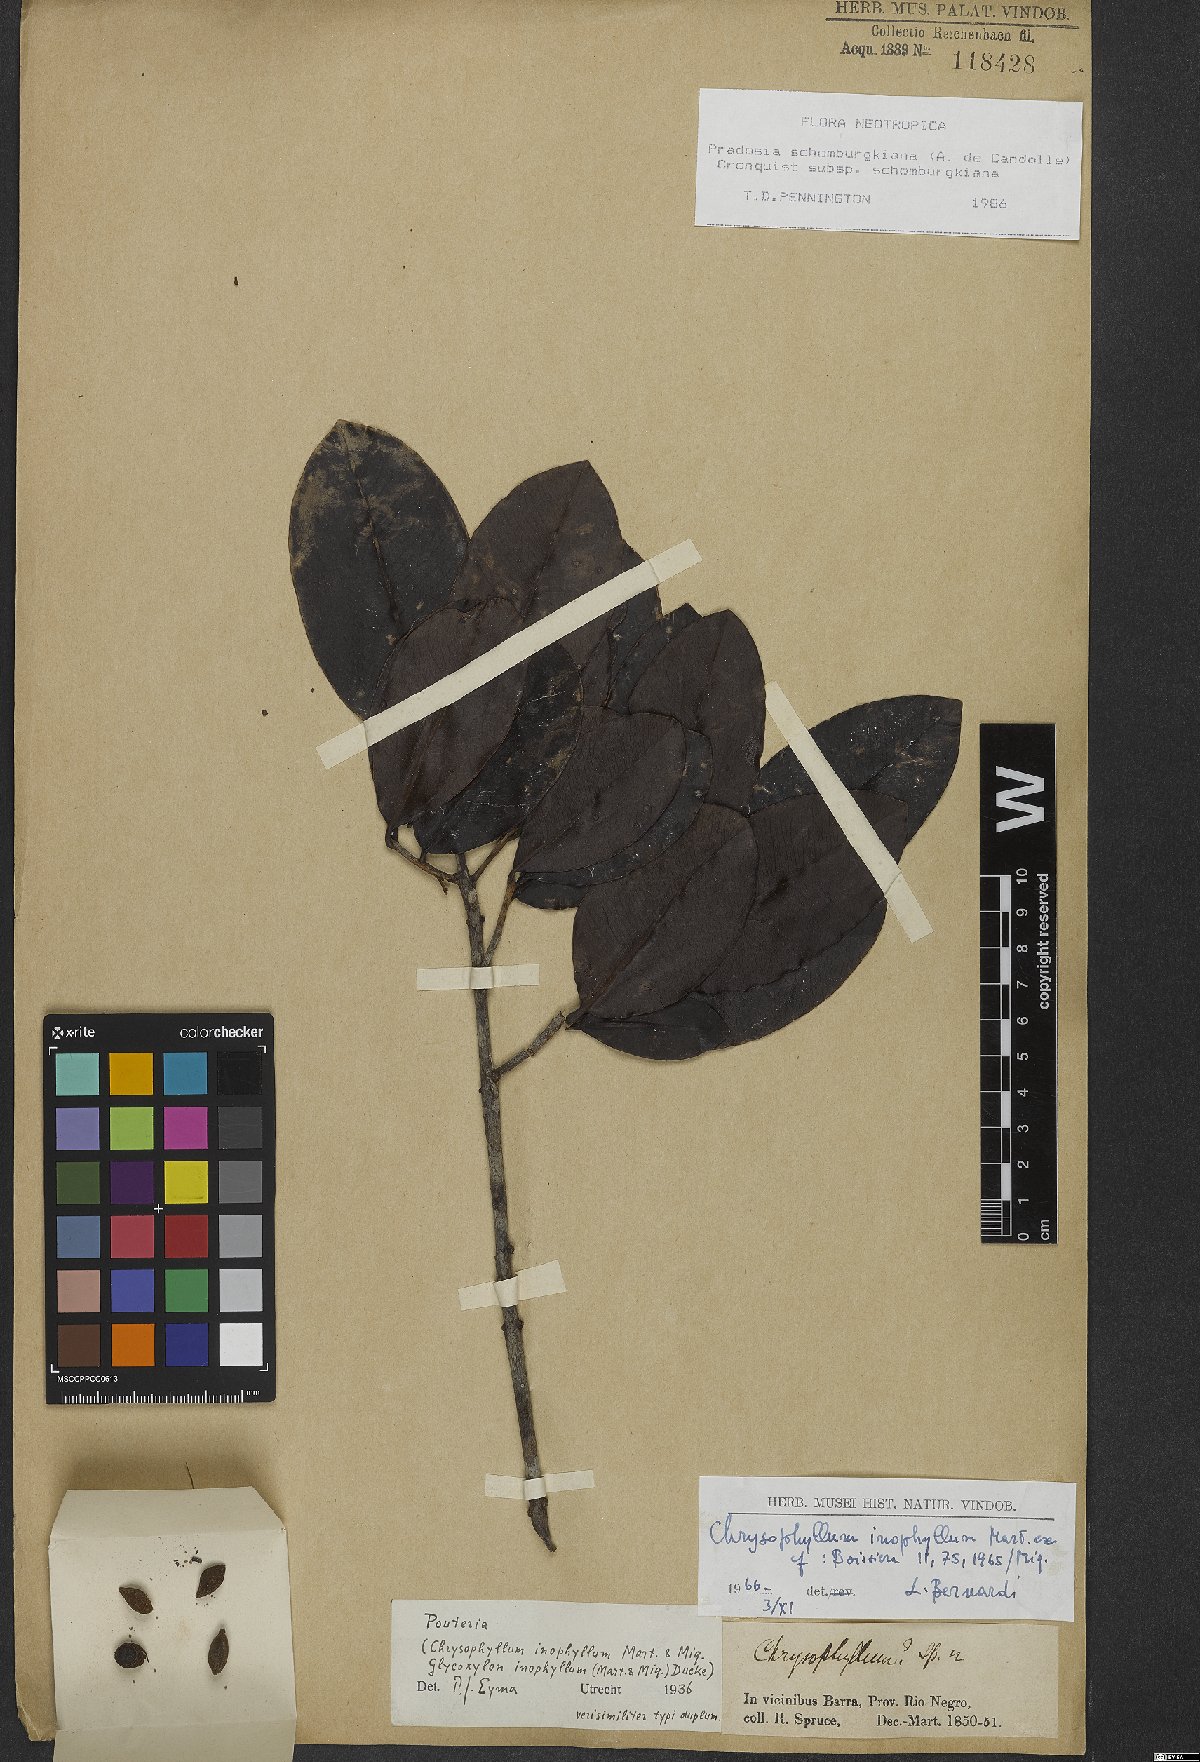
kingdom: Plantae
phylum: Tracheophyta
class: Magnoliopsida
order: Ericales
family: Sapotaceae
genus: Pradosia
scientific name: Pradosia schomburgkiana
